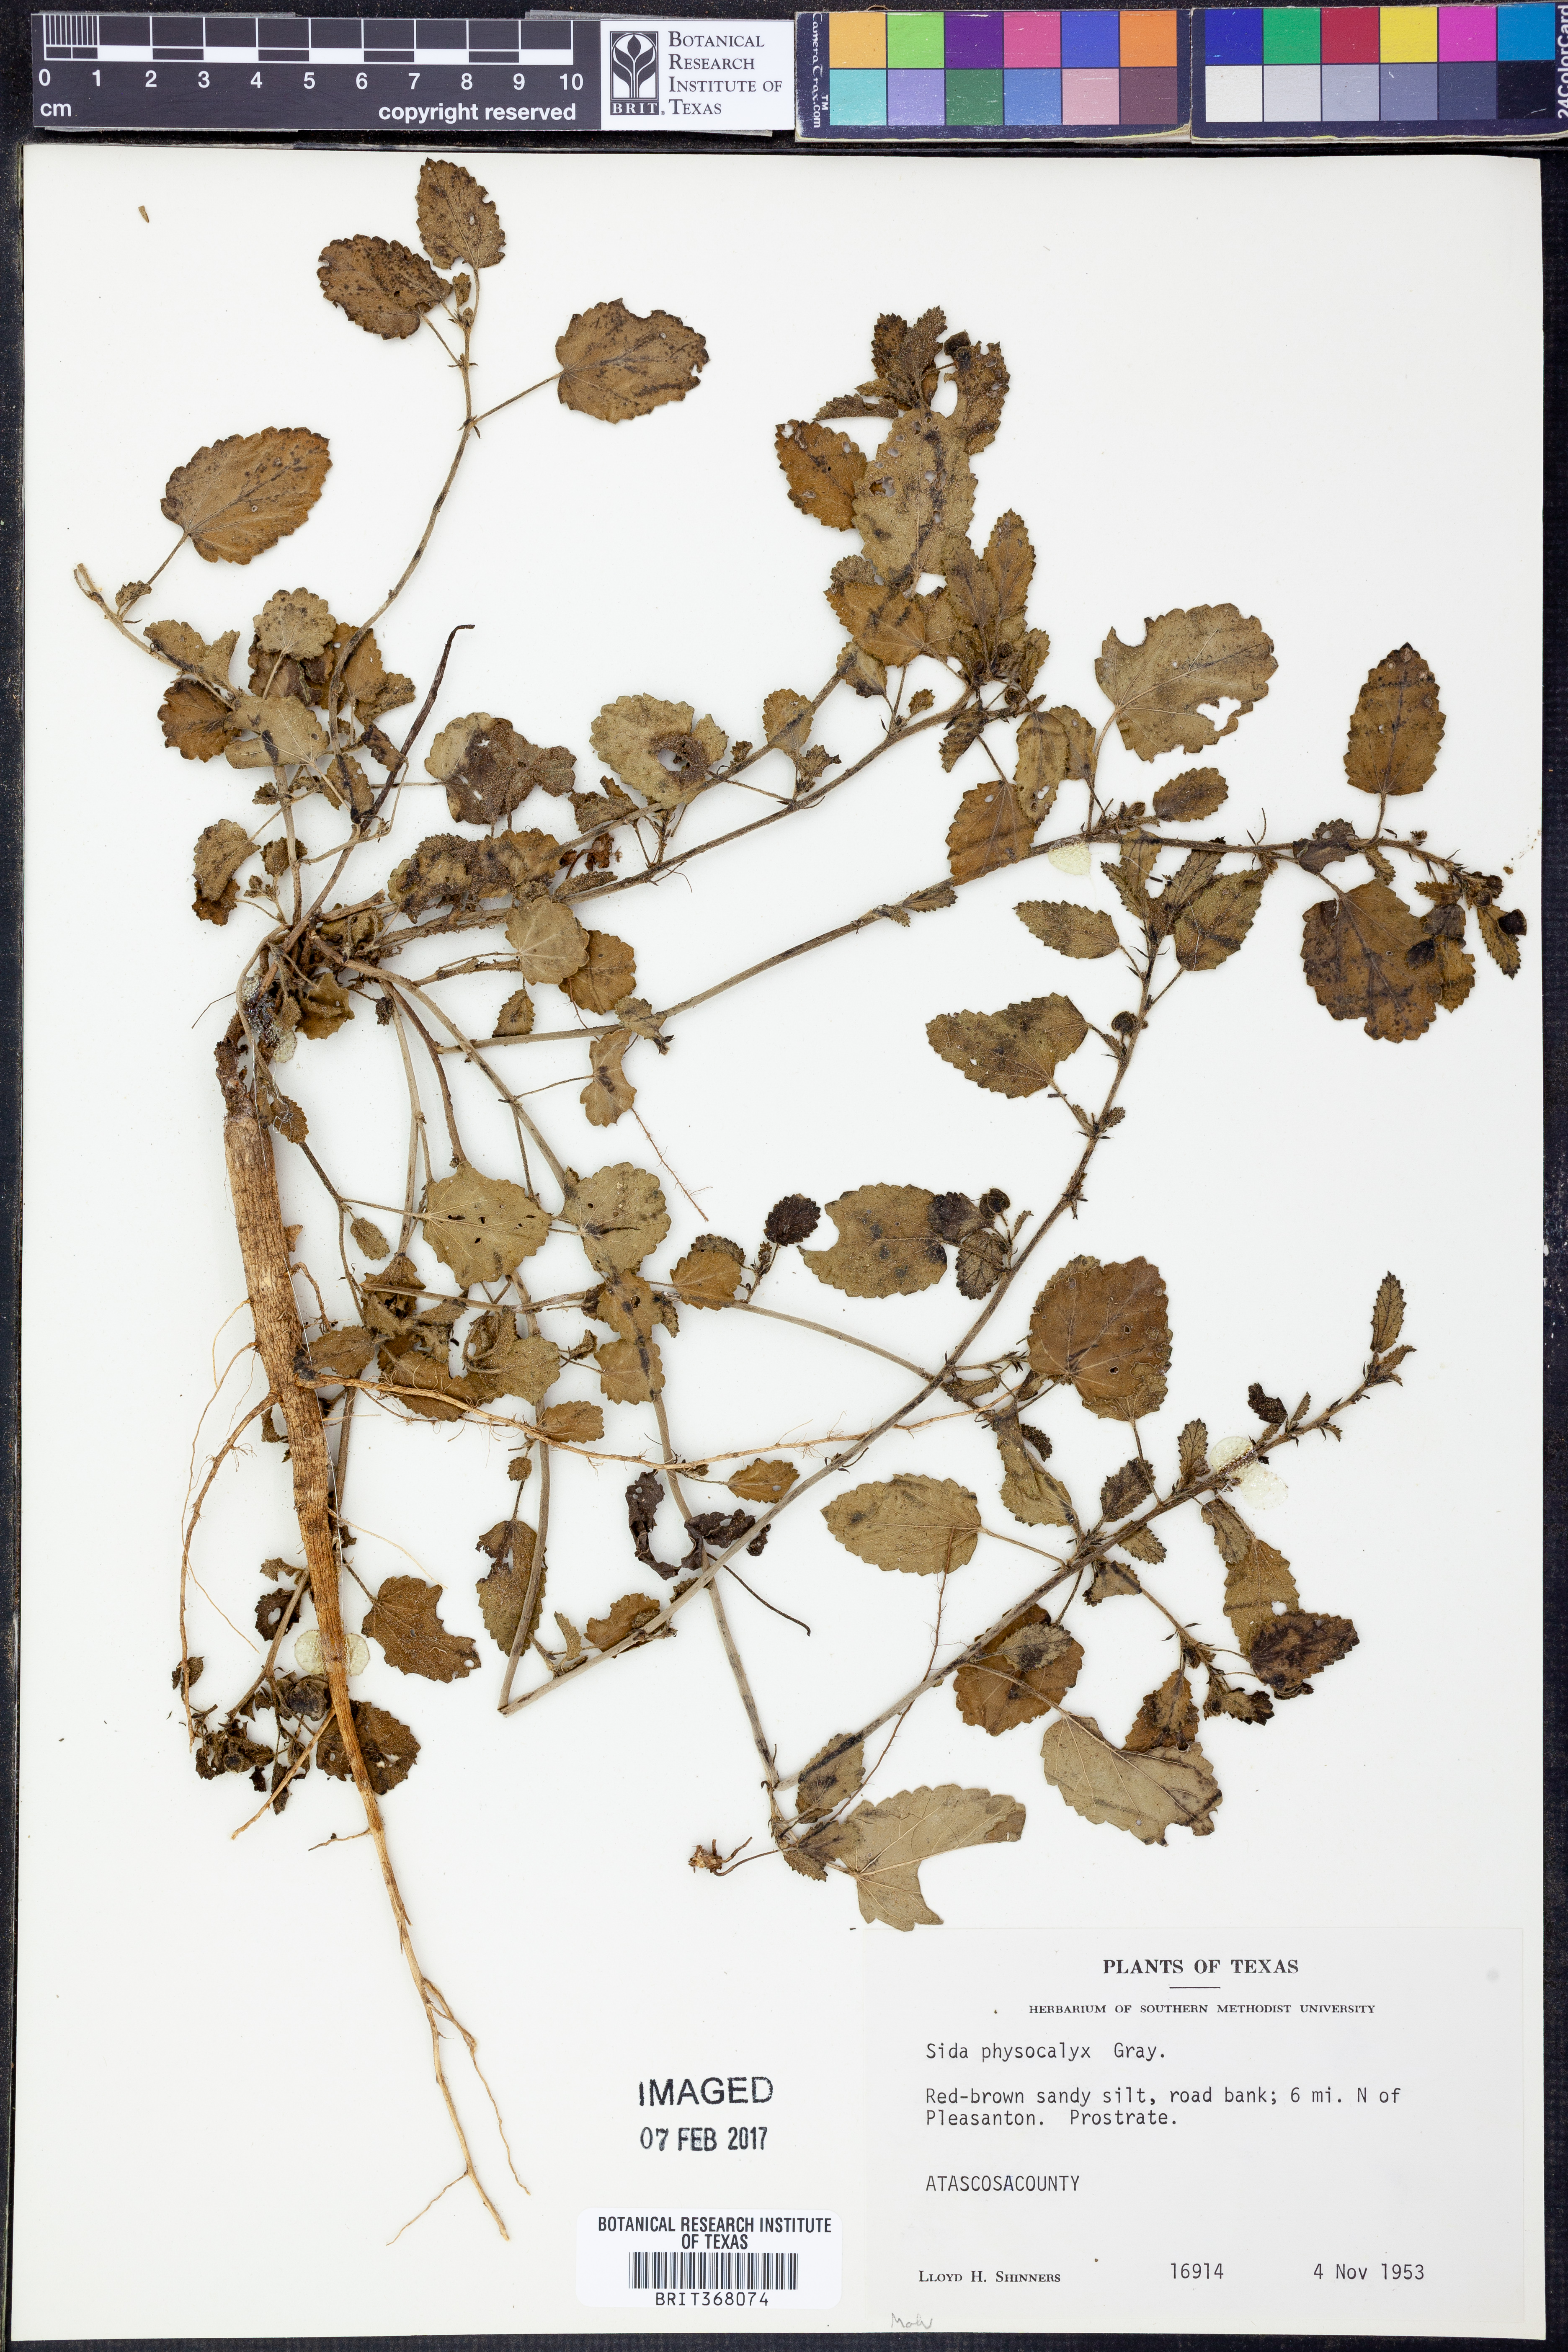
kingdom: Plantae
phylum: Tracheophyta
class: Magnoliopsida
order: Malvales
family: Malvaceae
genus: Rhynchosida
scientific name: Rhynchosida physocalyx
